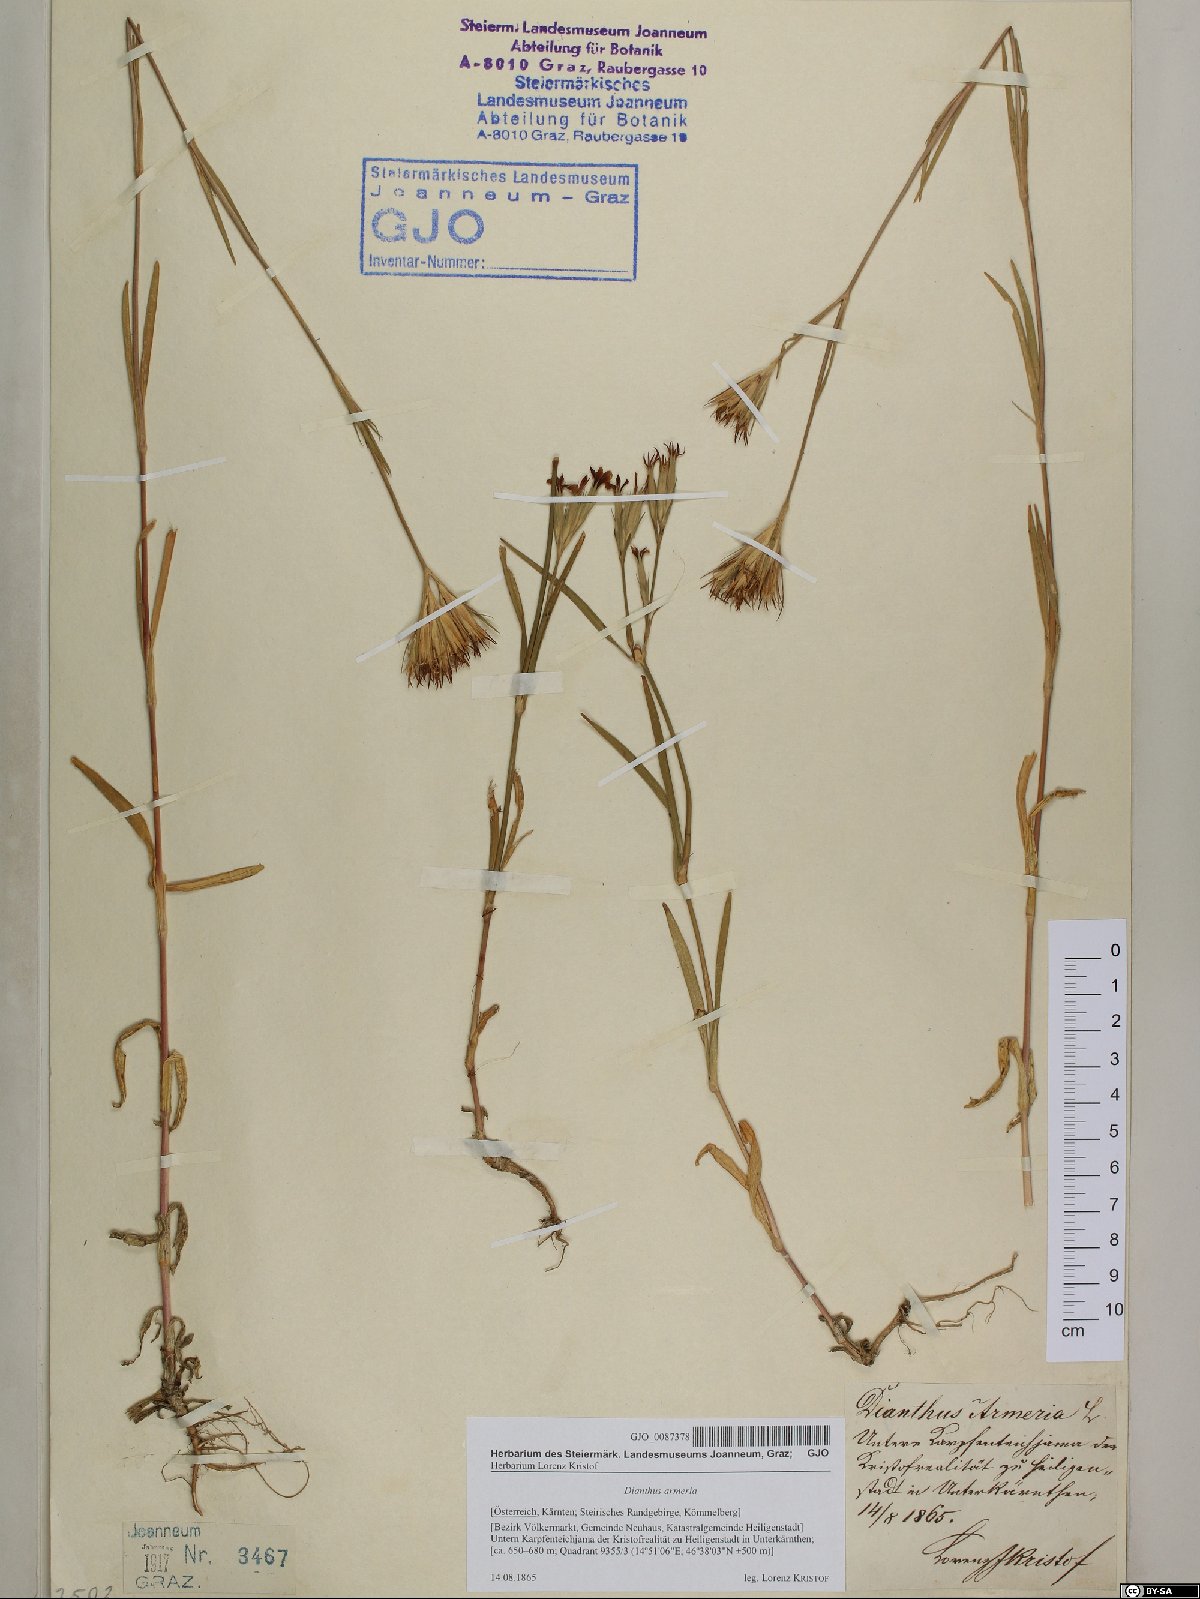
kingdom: Plantae
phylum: Tracheophyta
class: Magnoliopsida
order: Caryophyllales
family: Caryophyllaceae
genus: Dianthus
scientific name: Dianthus armeria
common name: Deptford pink
